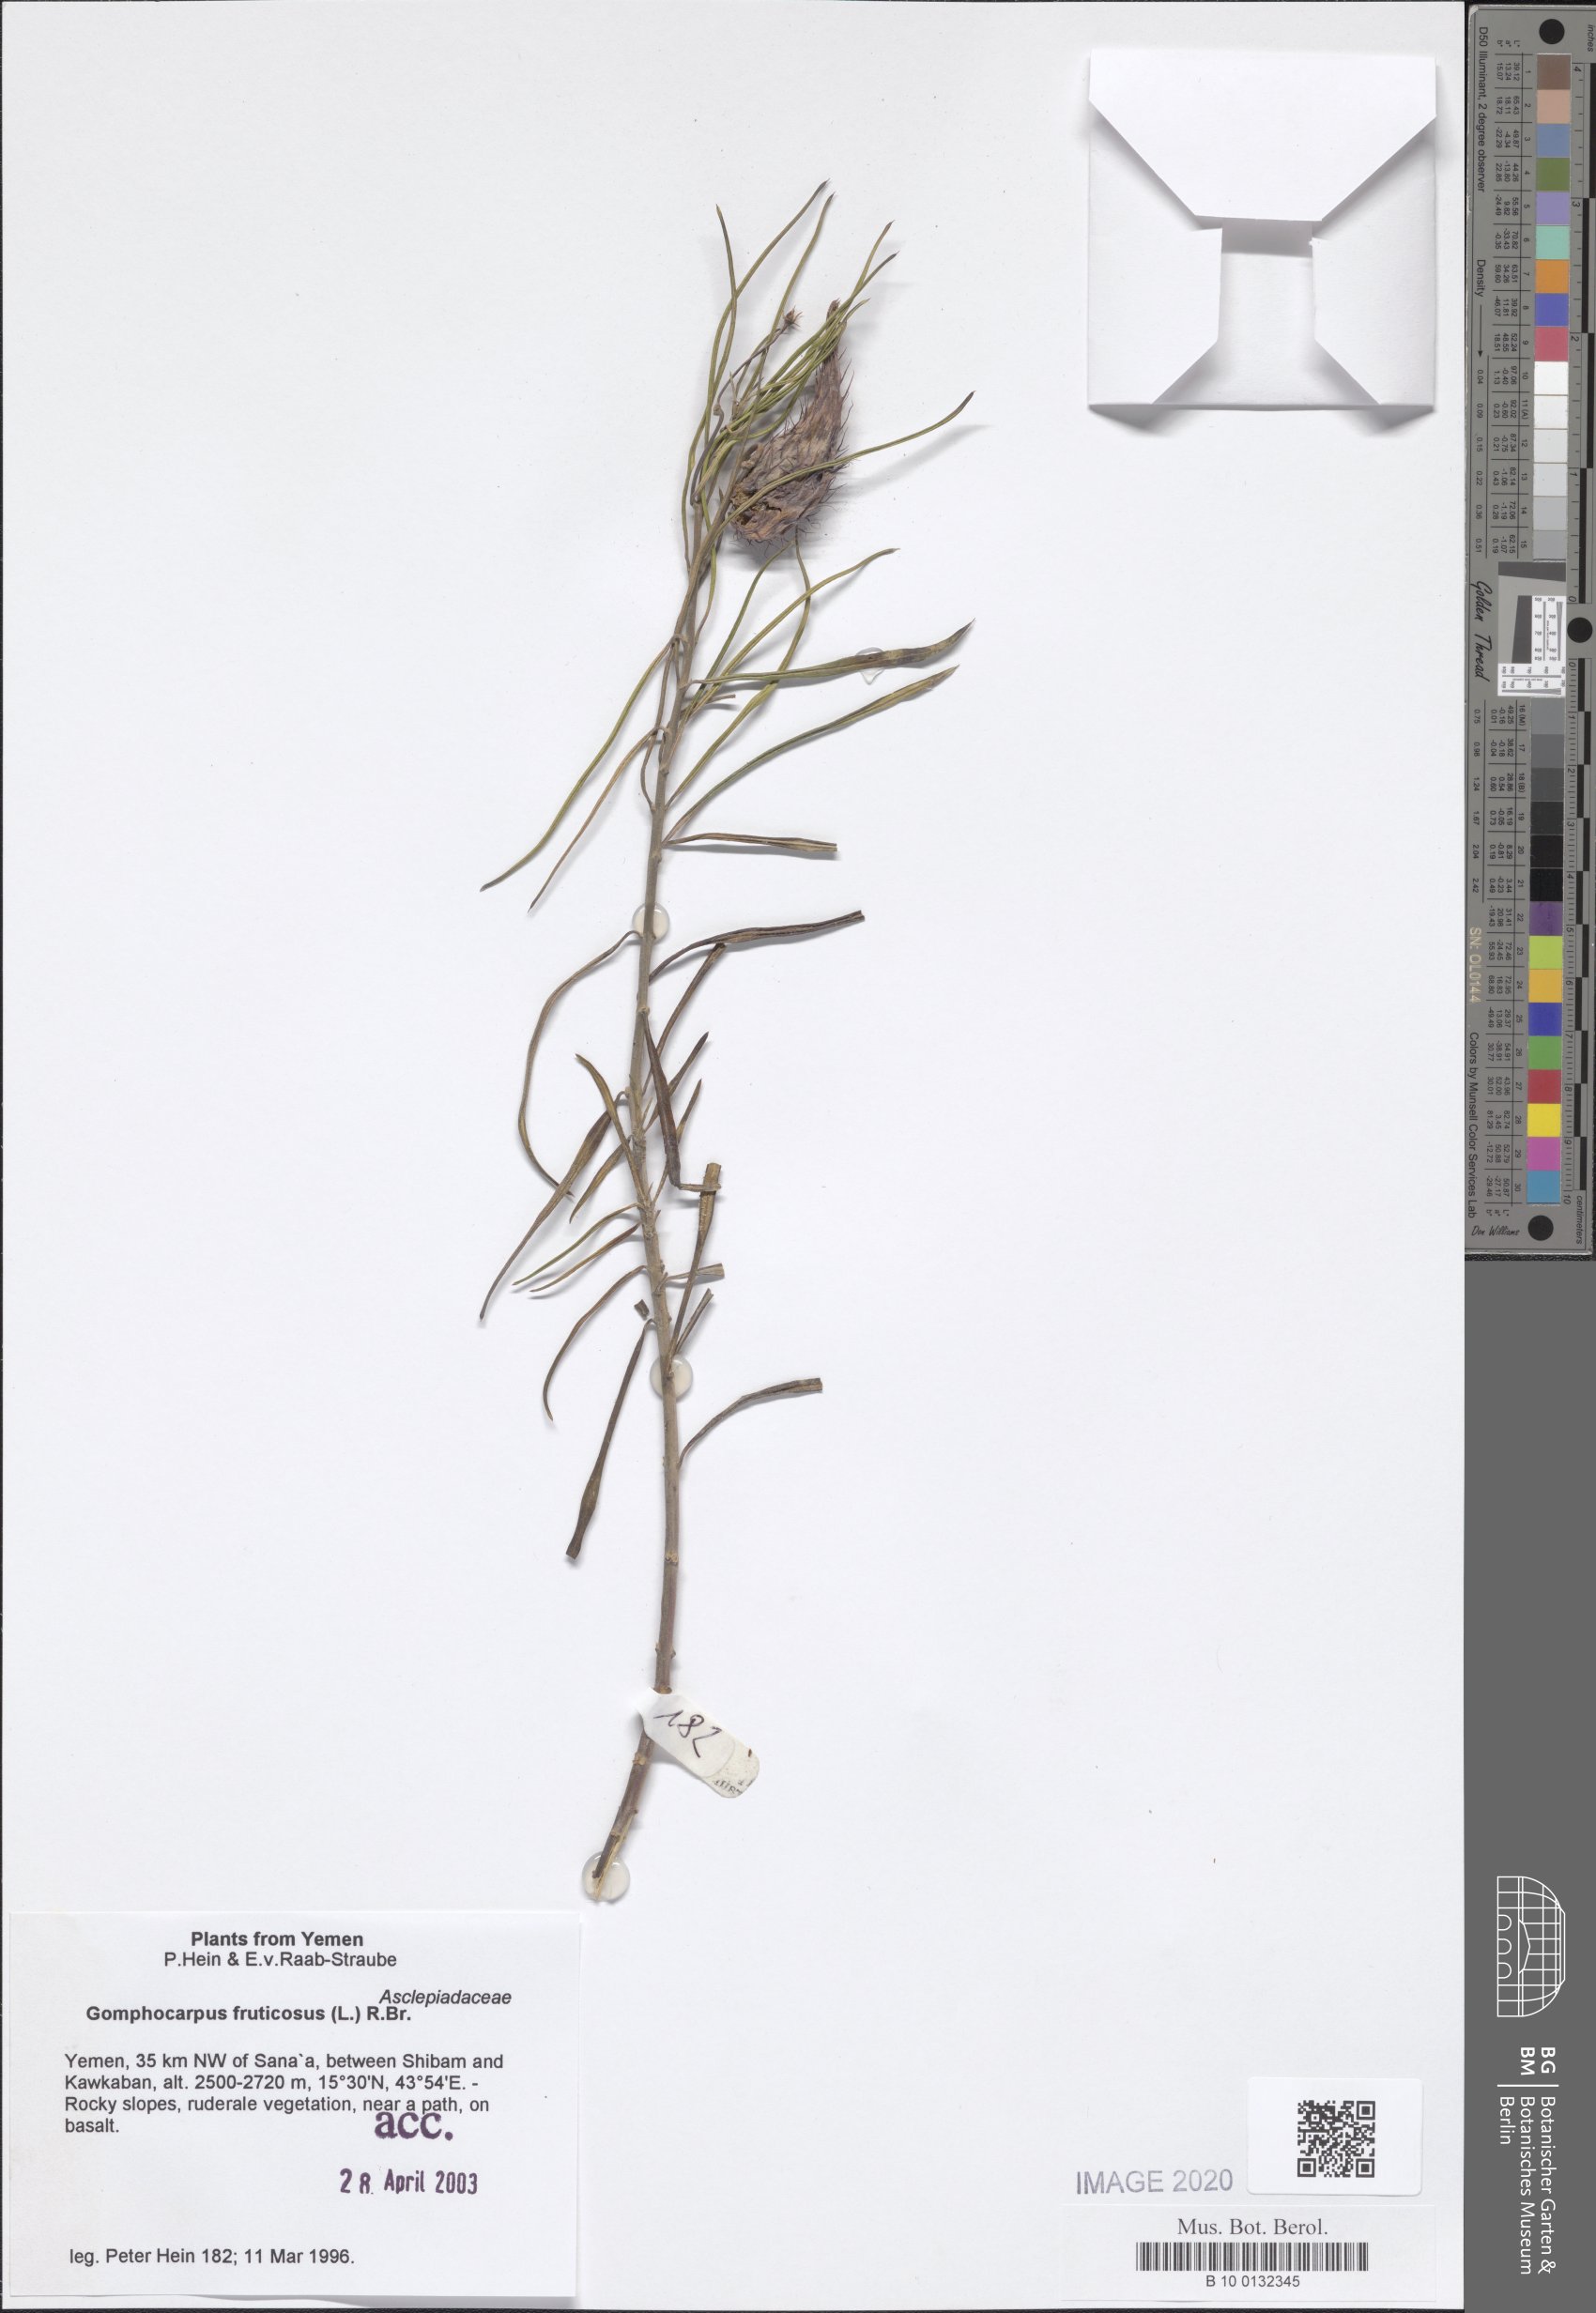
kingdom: Plantae
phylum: Tracheophyta
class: Magnoliopsida
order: Gentianales
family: Apocynaceae
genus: Gomphocarpus
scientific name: Gomphocarpus physocarpus
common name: Balloon cotton bush
